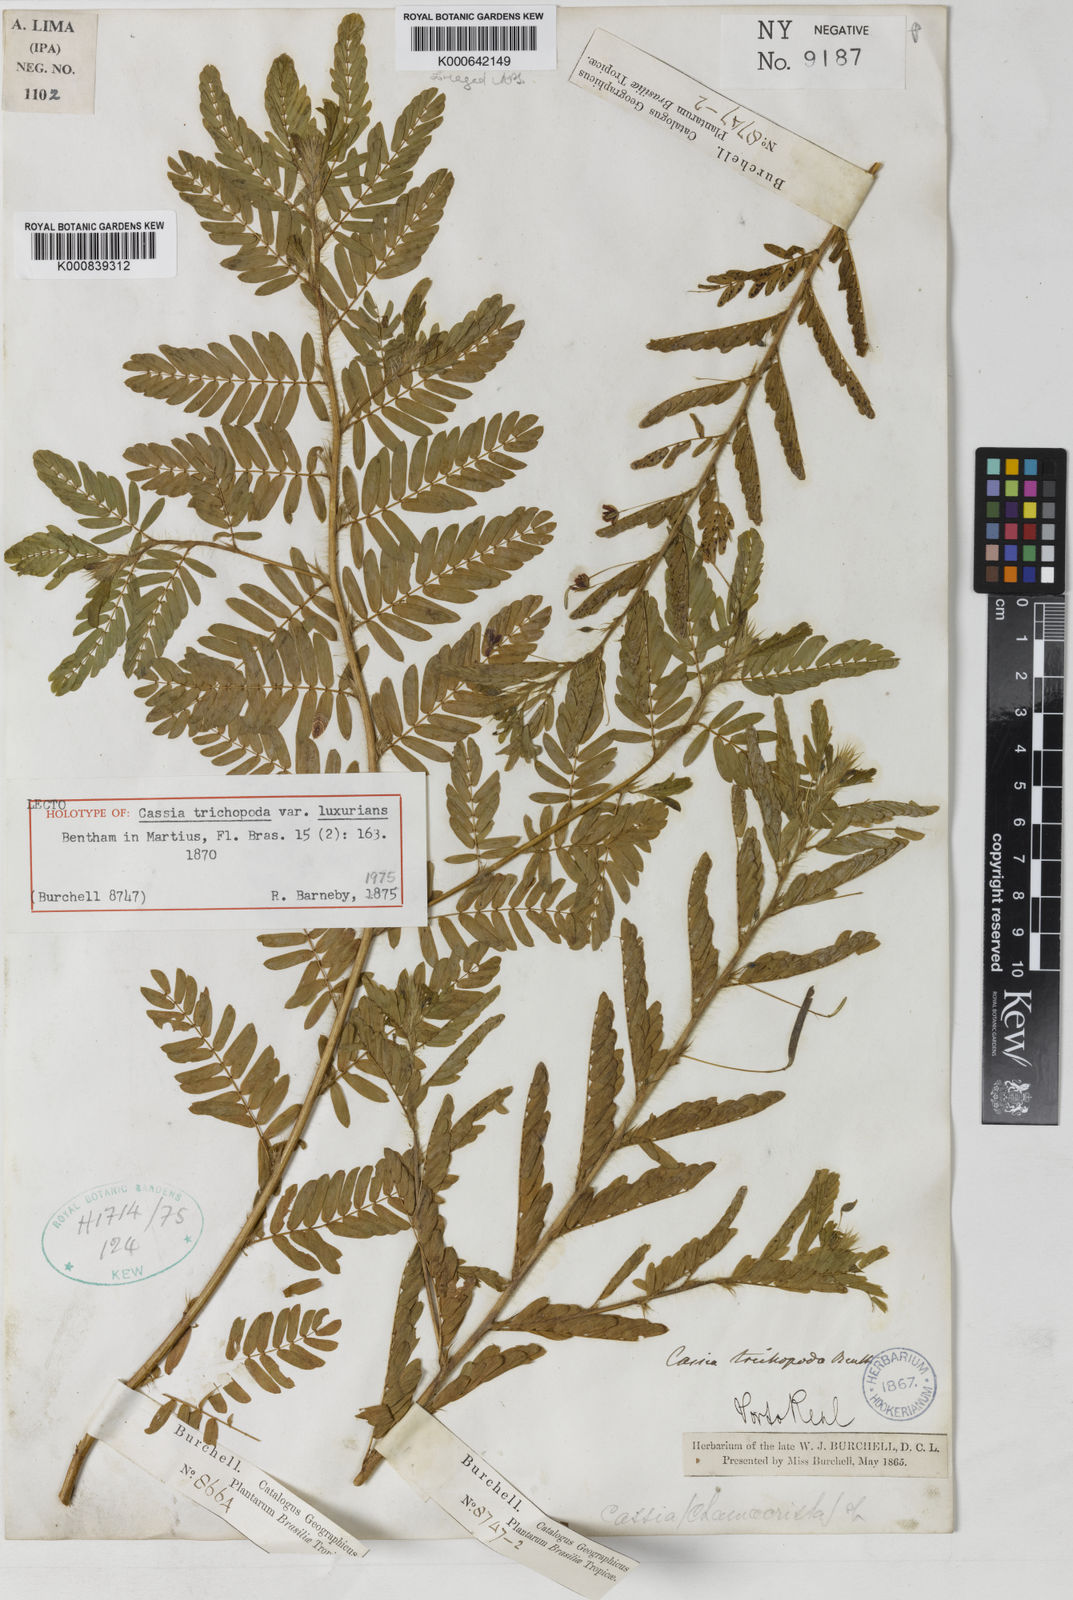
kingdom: Plantae
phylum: Tracheophyta
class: Magnoliopsida
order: Fabales
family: Fabaceae
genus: Chamaecrista
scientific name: Chamaecrista pilosa
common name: Hairy sensitive pea
